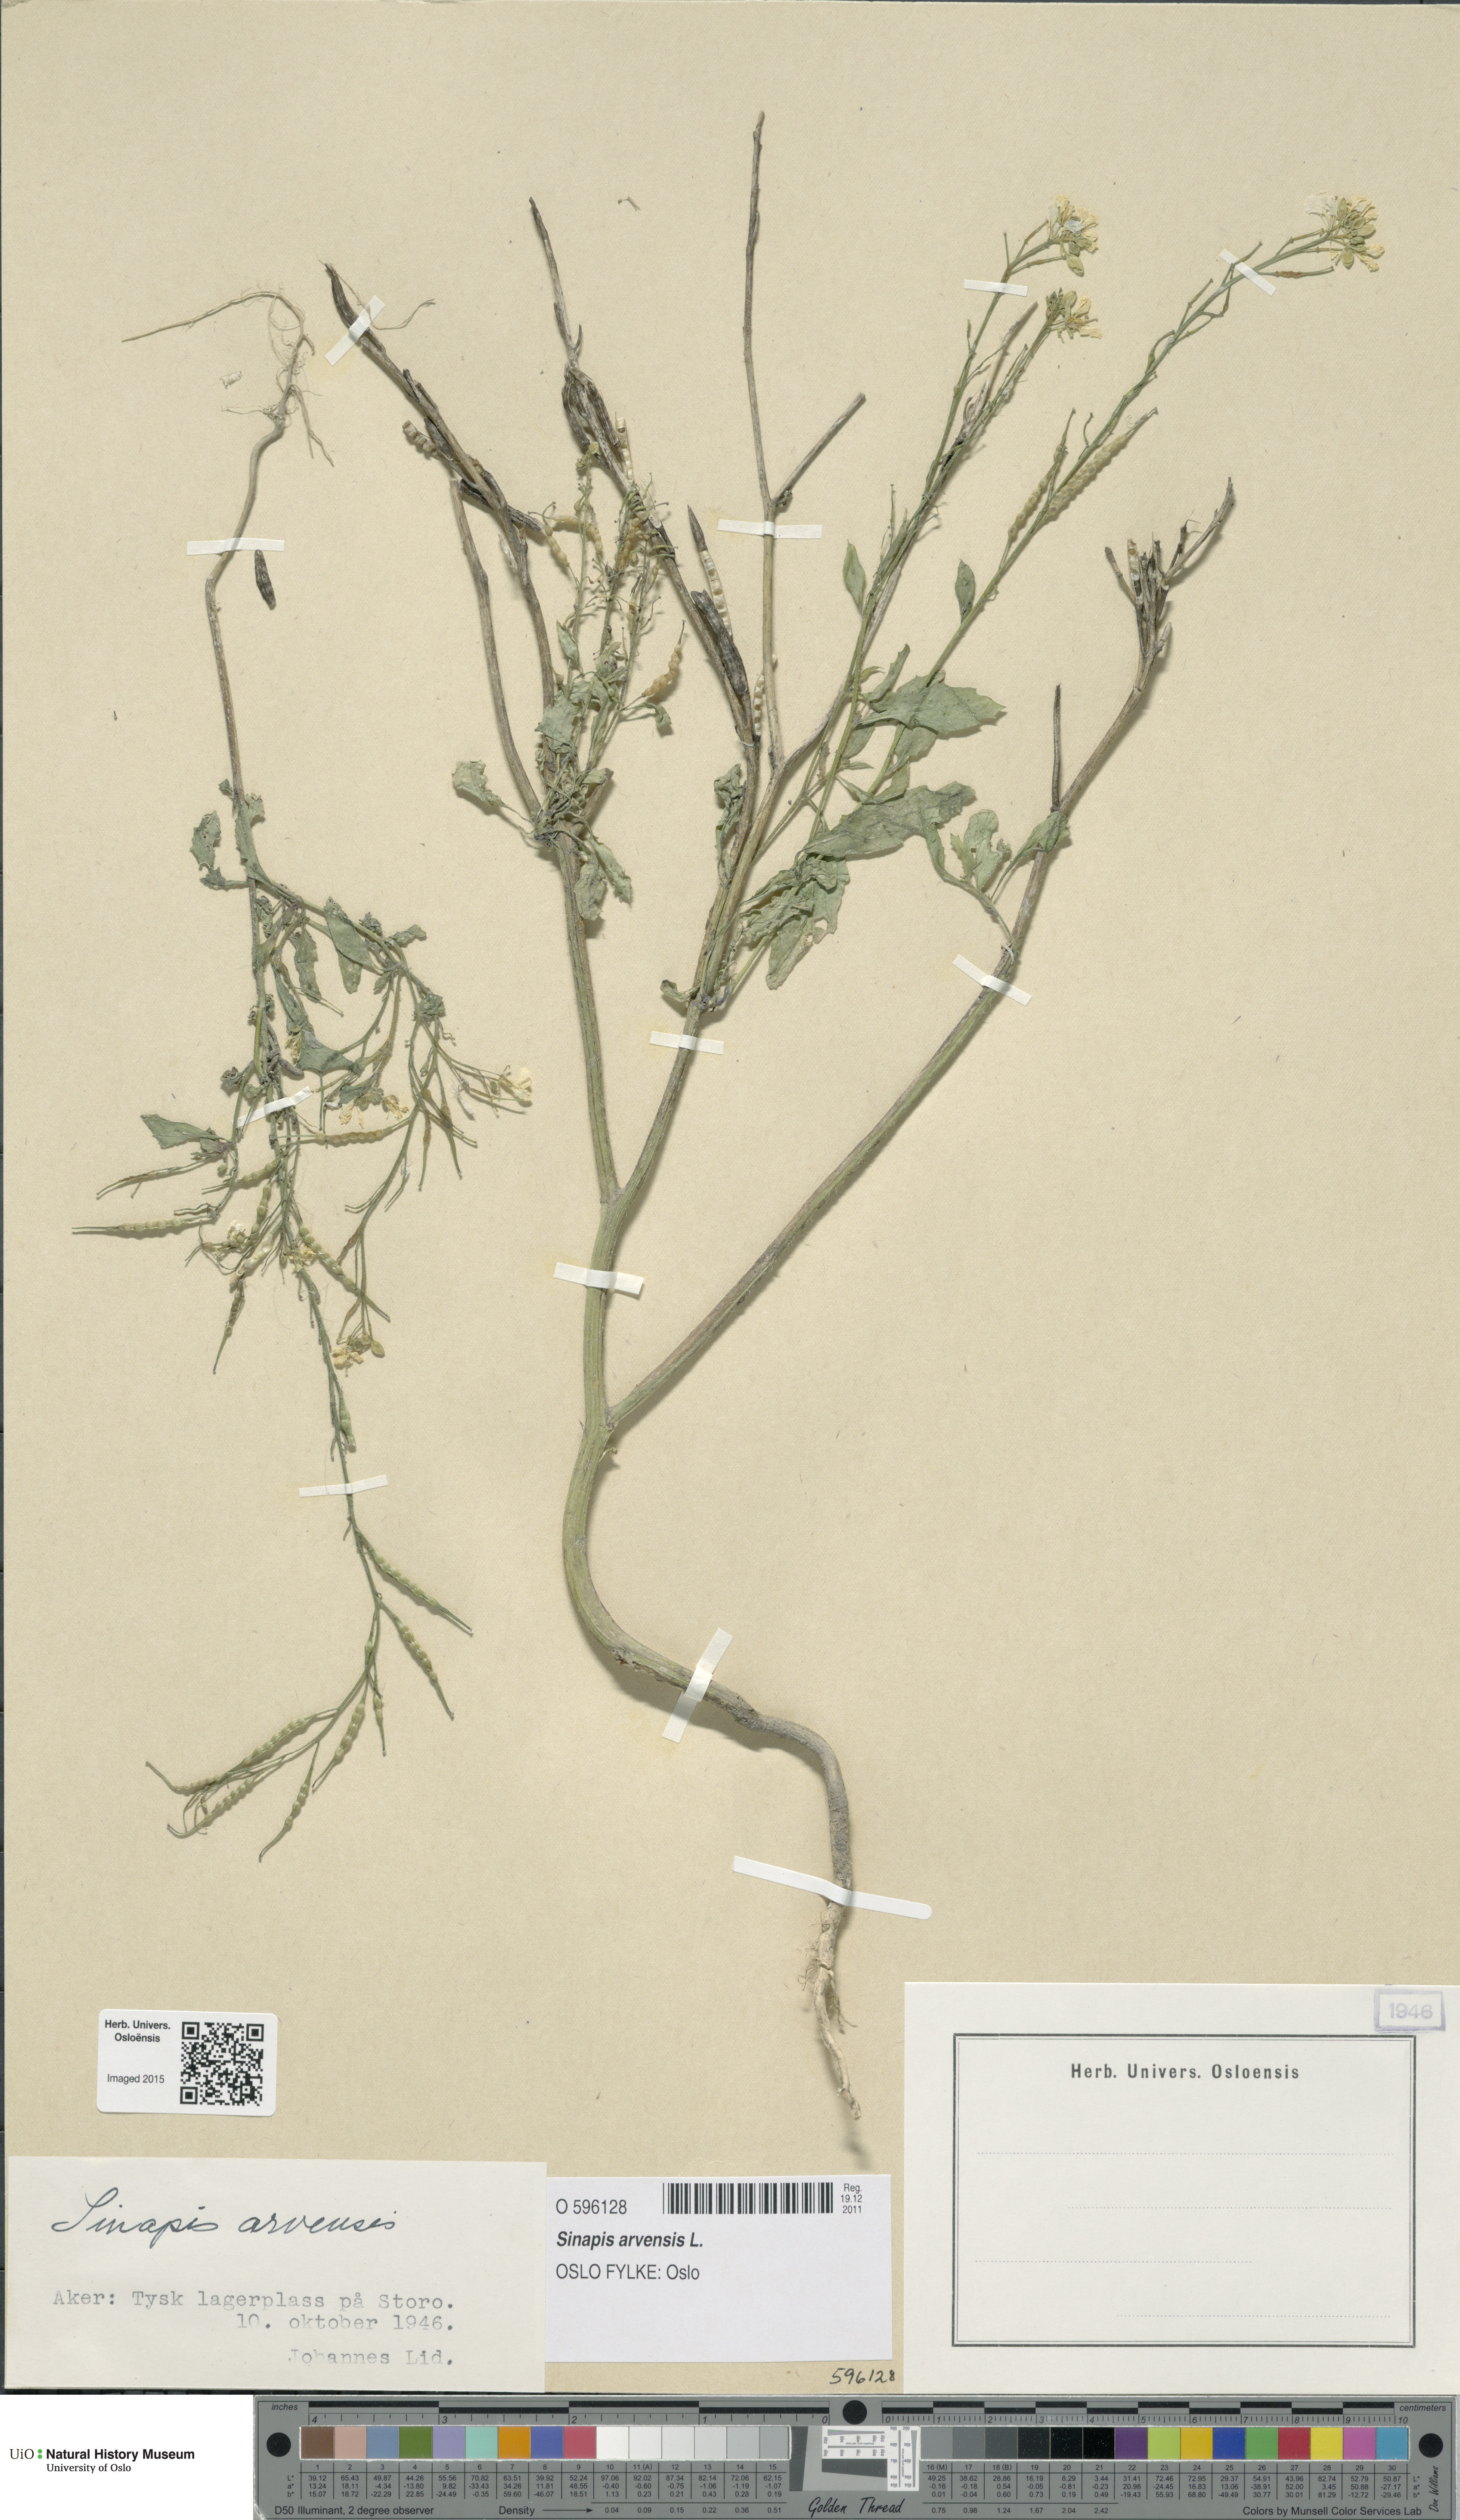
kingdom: Plantae
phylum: Tracheophyta
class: Magnoliopsida
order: Brassicales
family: Brassicaceae
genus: Sinapis
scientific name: Sinapis arvensis
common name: Charlock
